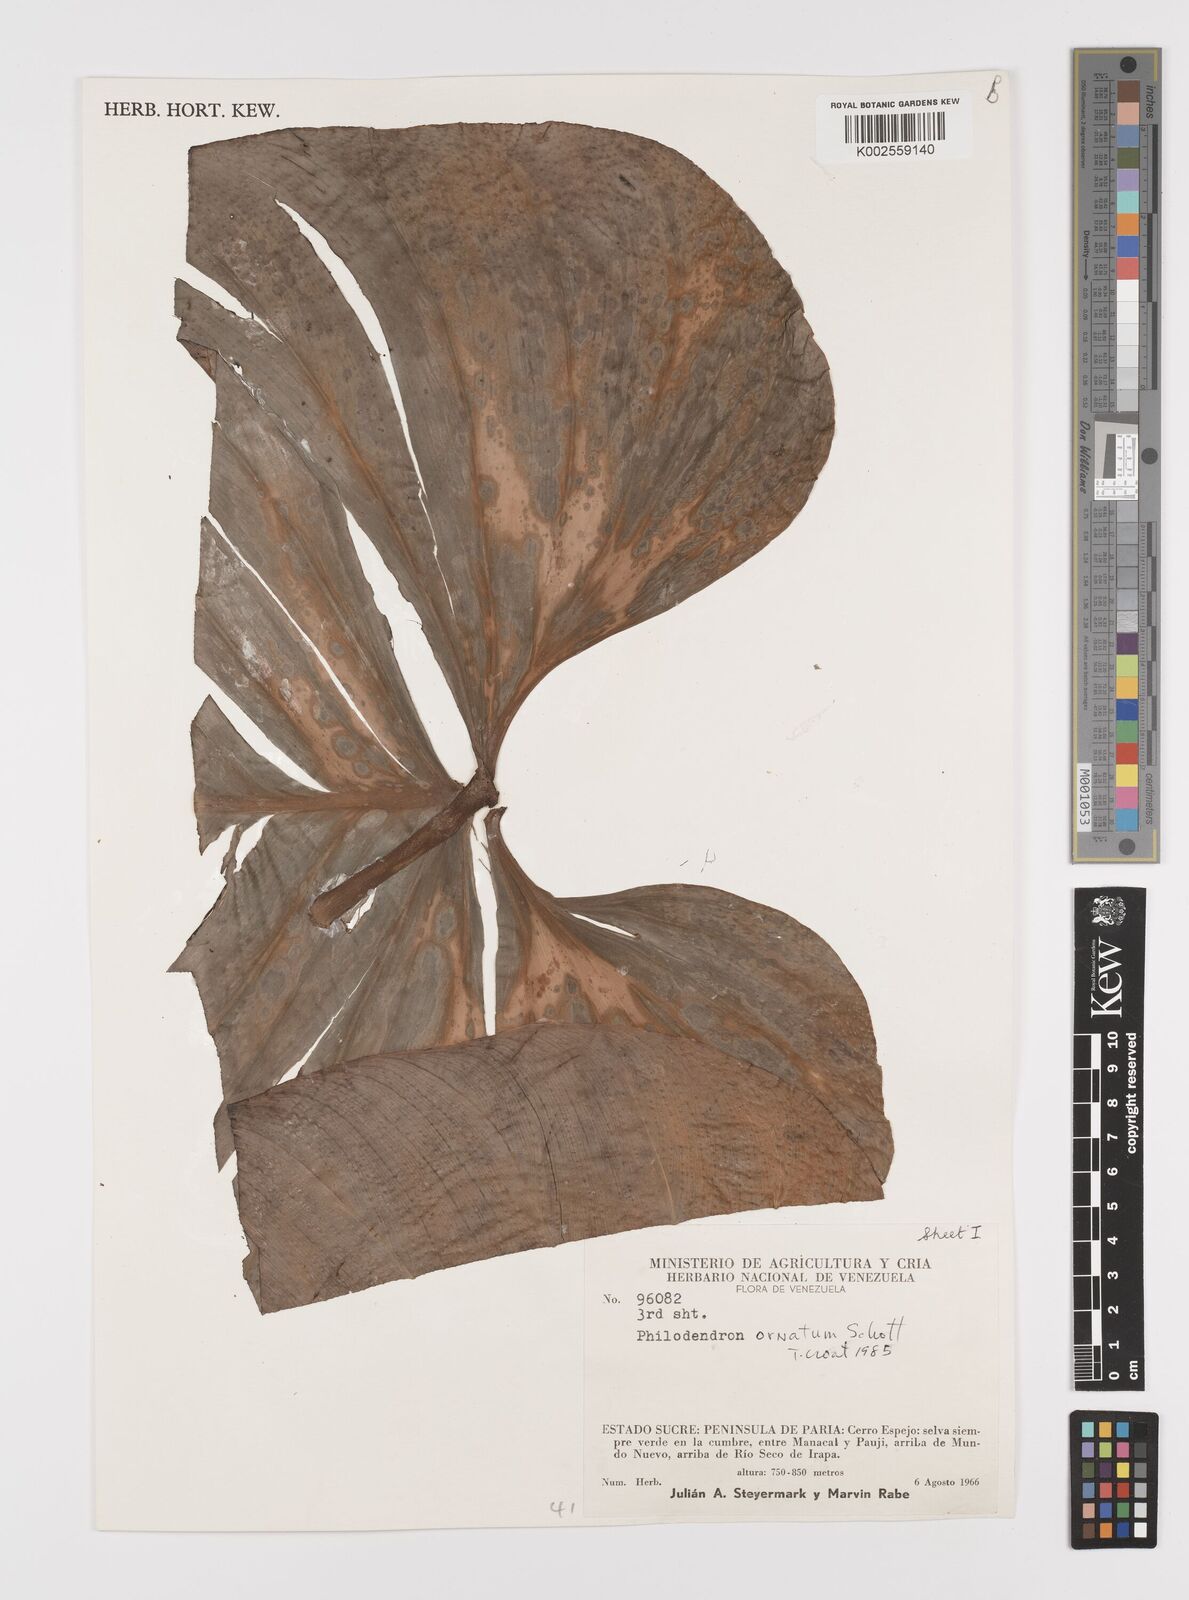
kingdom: Plantae
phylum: Tracheophyta
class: Liliopsida
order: Alismatales
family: Araceae
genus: Philodendron
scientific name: Philodendron ornatum
